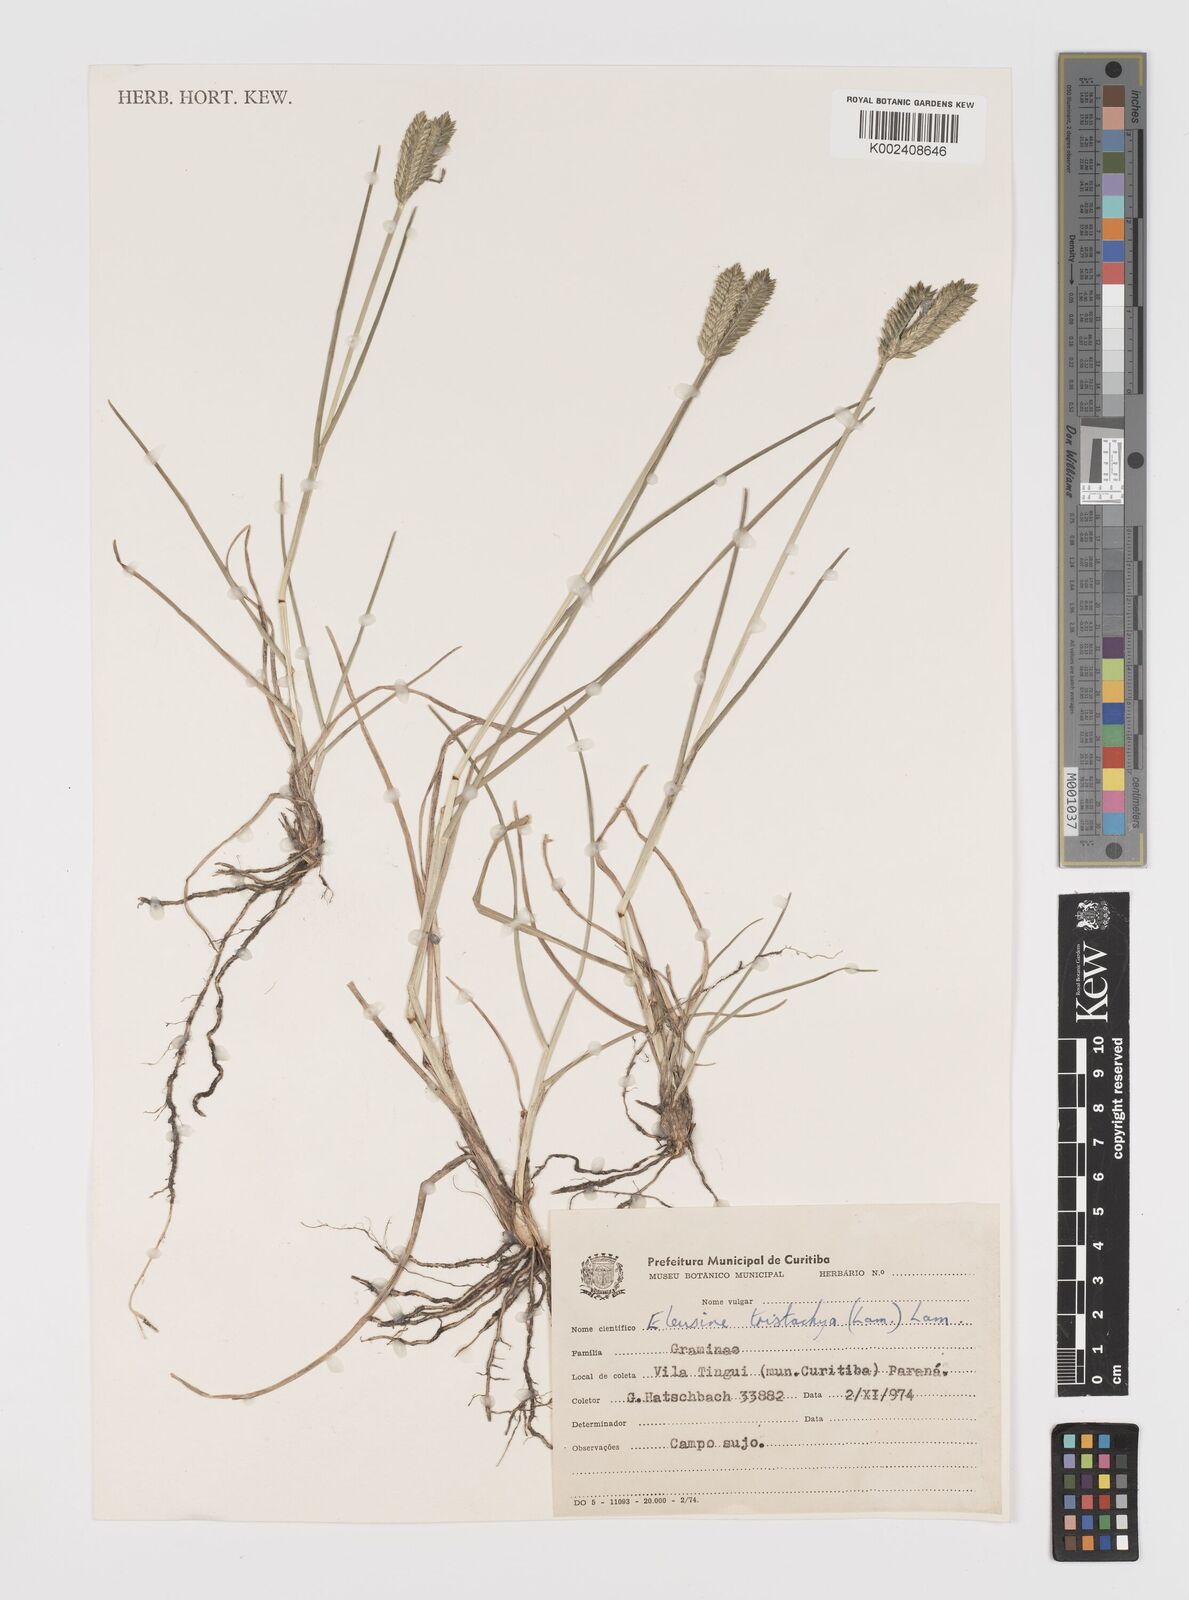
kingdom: Plantae
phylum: Tracheophyta
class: Liliopsida
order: Poales
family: Poaceae
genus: Eleusine
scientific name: Eleusine tristachya
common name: American yard-grass
